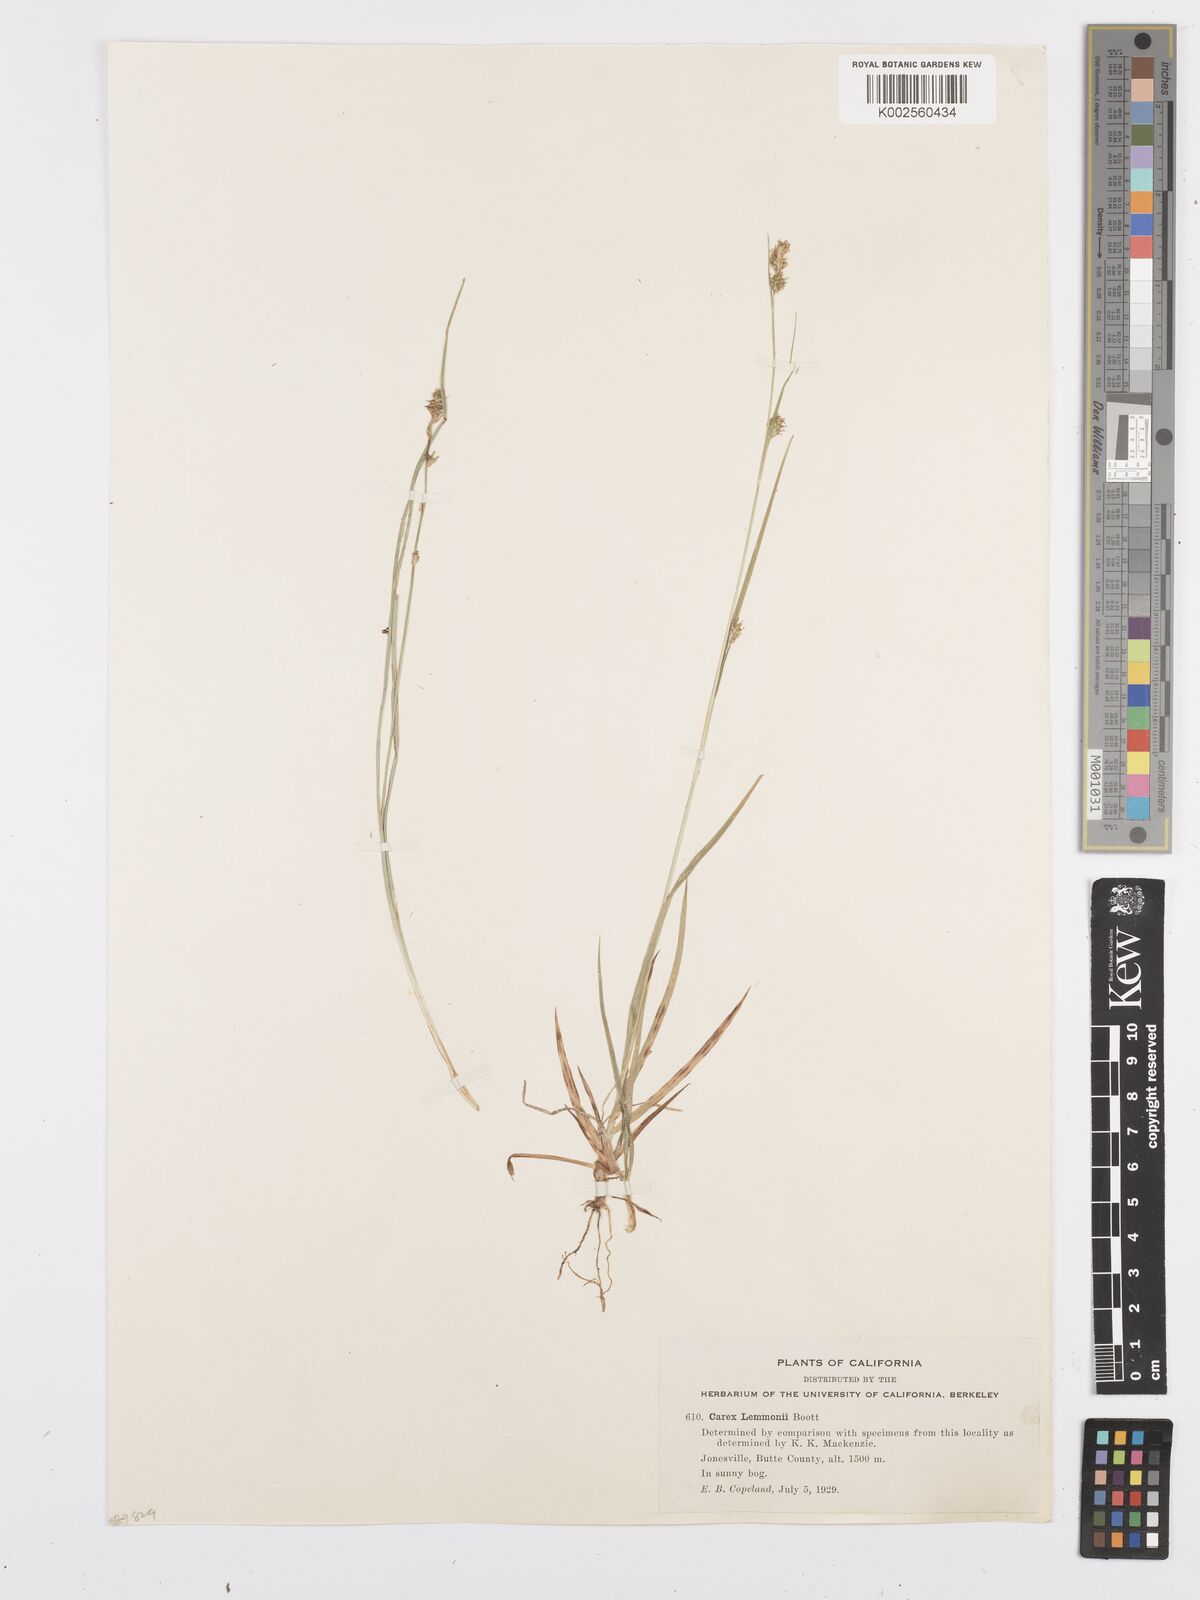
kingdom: Plantae
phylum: Tracheophyta
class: Liliopsida
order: Poales
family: Cyperaceae
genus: Carex
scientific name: Carex lemmonii
